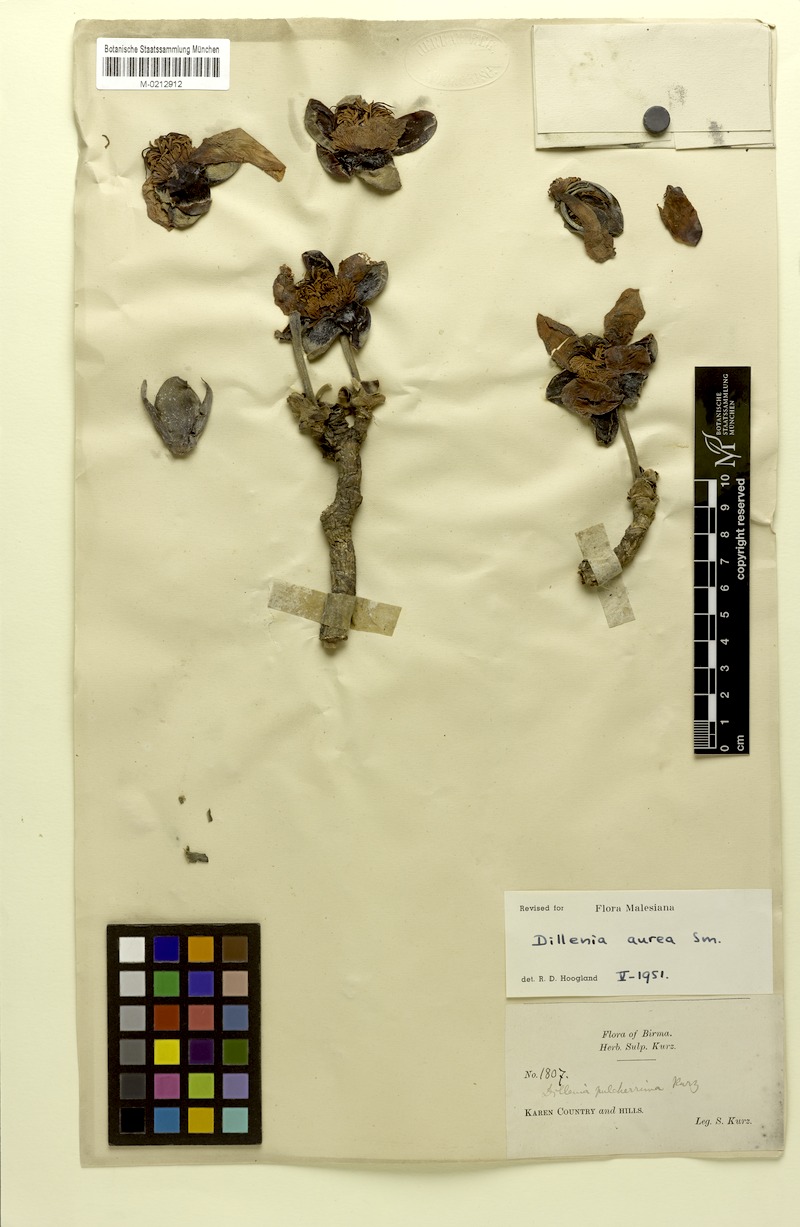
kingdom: Plantae
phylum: Tracheophyta
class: Magnoliopsida
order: Dilleniales
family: Dilleniaceae
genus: Dillenia
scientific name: Dillenia aurea
